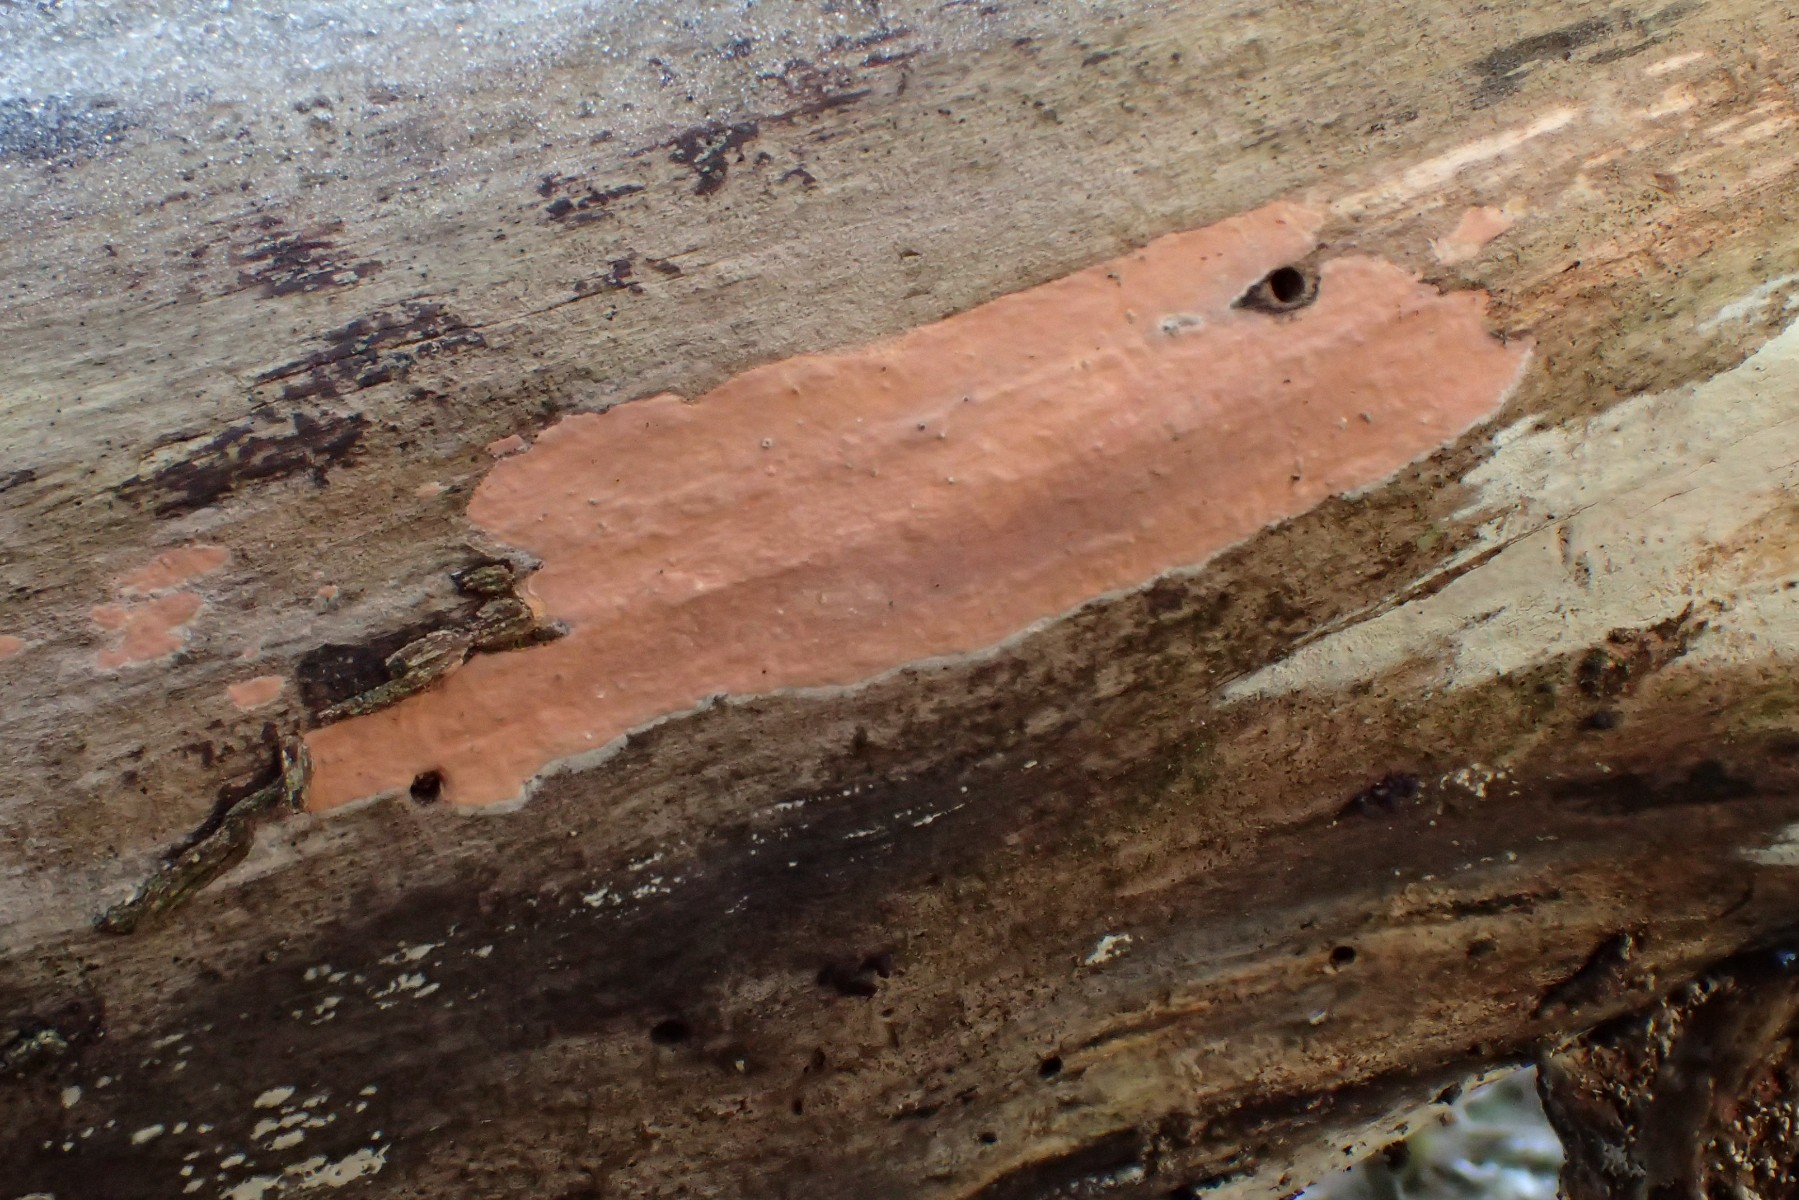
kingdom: Fungi
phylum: Basidiomycota
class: Agaricomycetes
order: Russulales
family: Peniophoraceae
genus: Peniophora
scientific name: Peniophora incarnata
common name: laksefarvet voksskind
